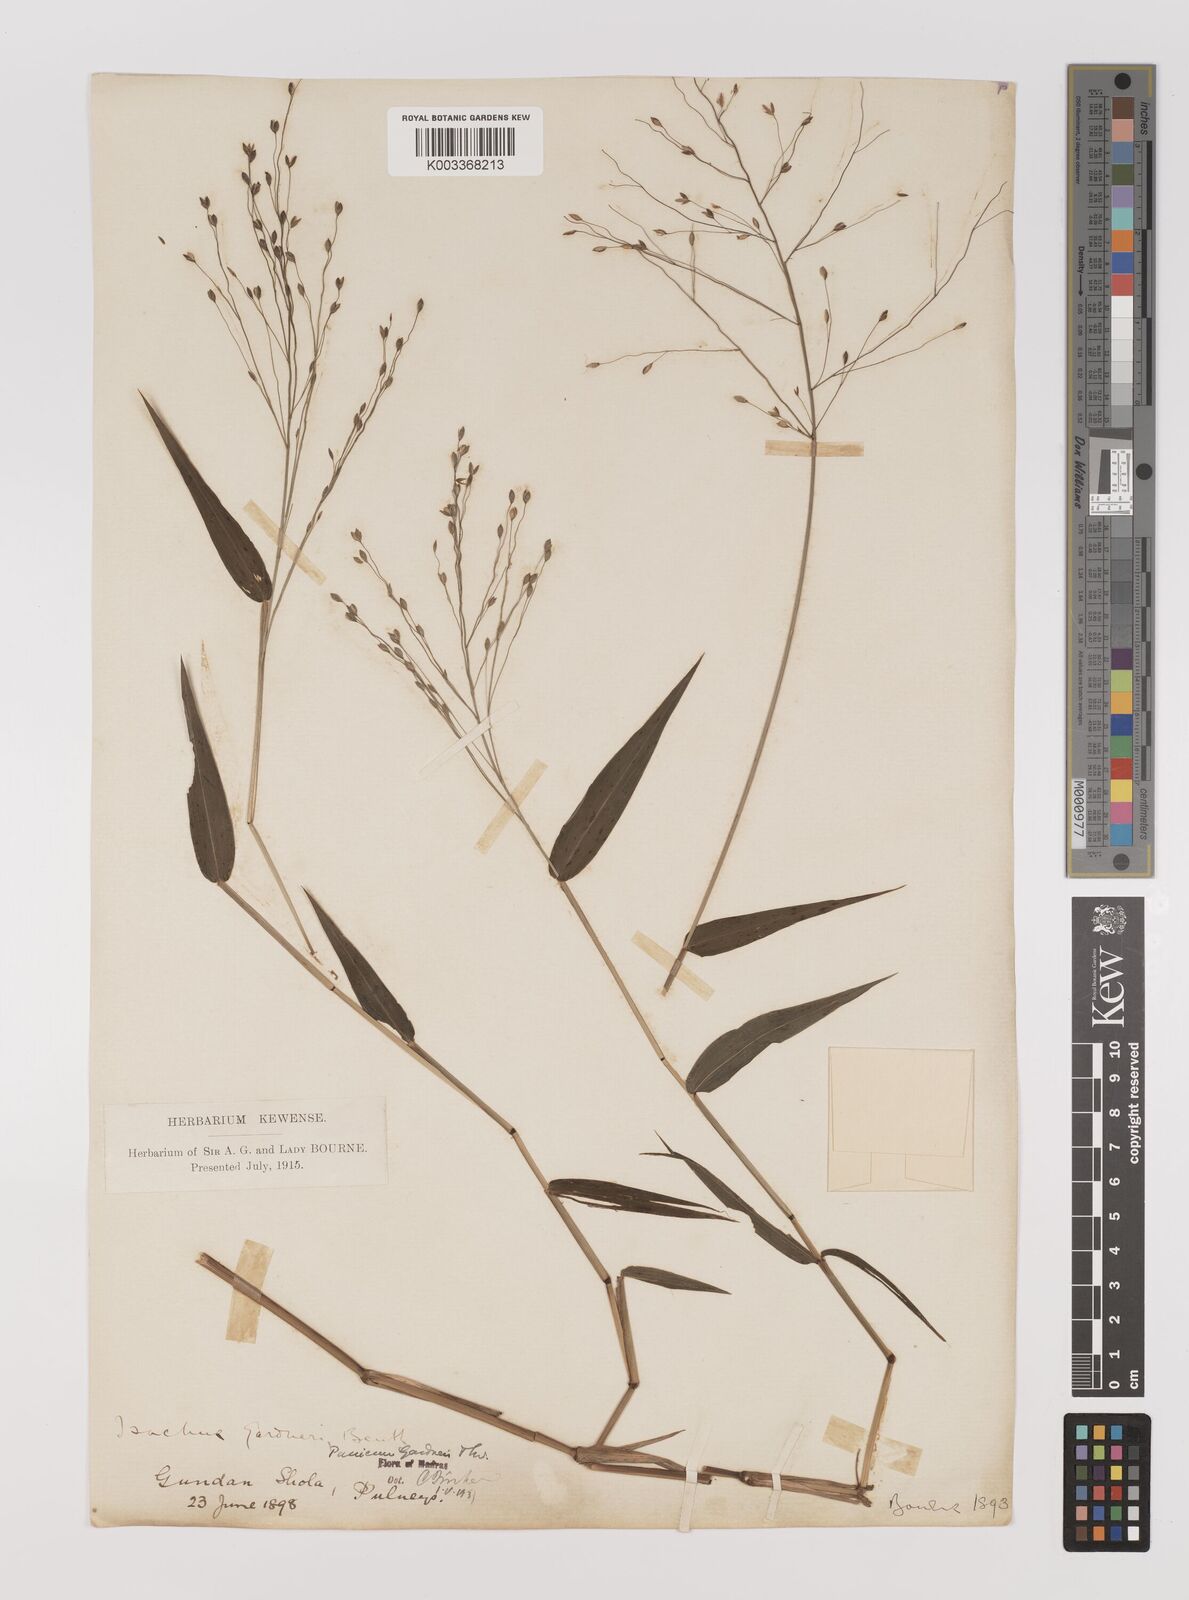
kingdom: Plantae
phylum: Tracheophyta
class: Liliopsida
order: Poales
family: Poaceae
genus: Panicum
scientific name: Panicum gardneri
